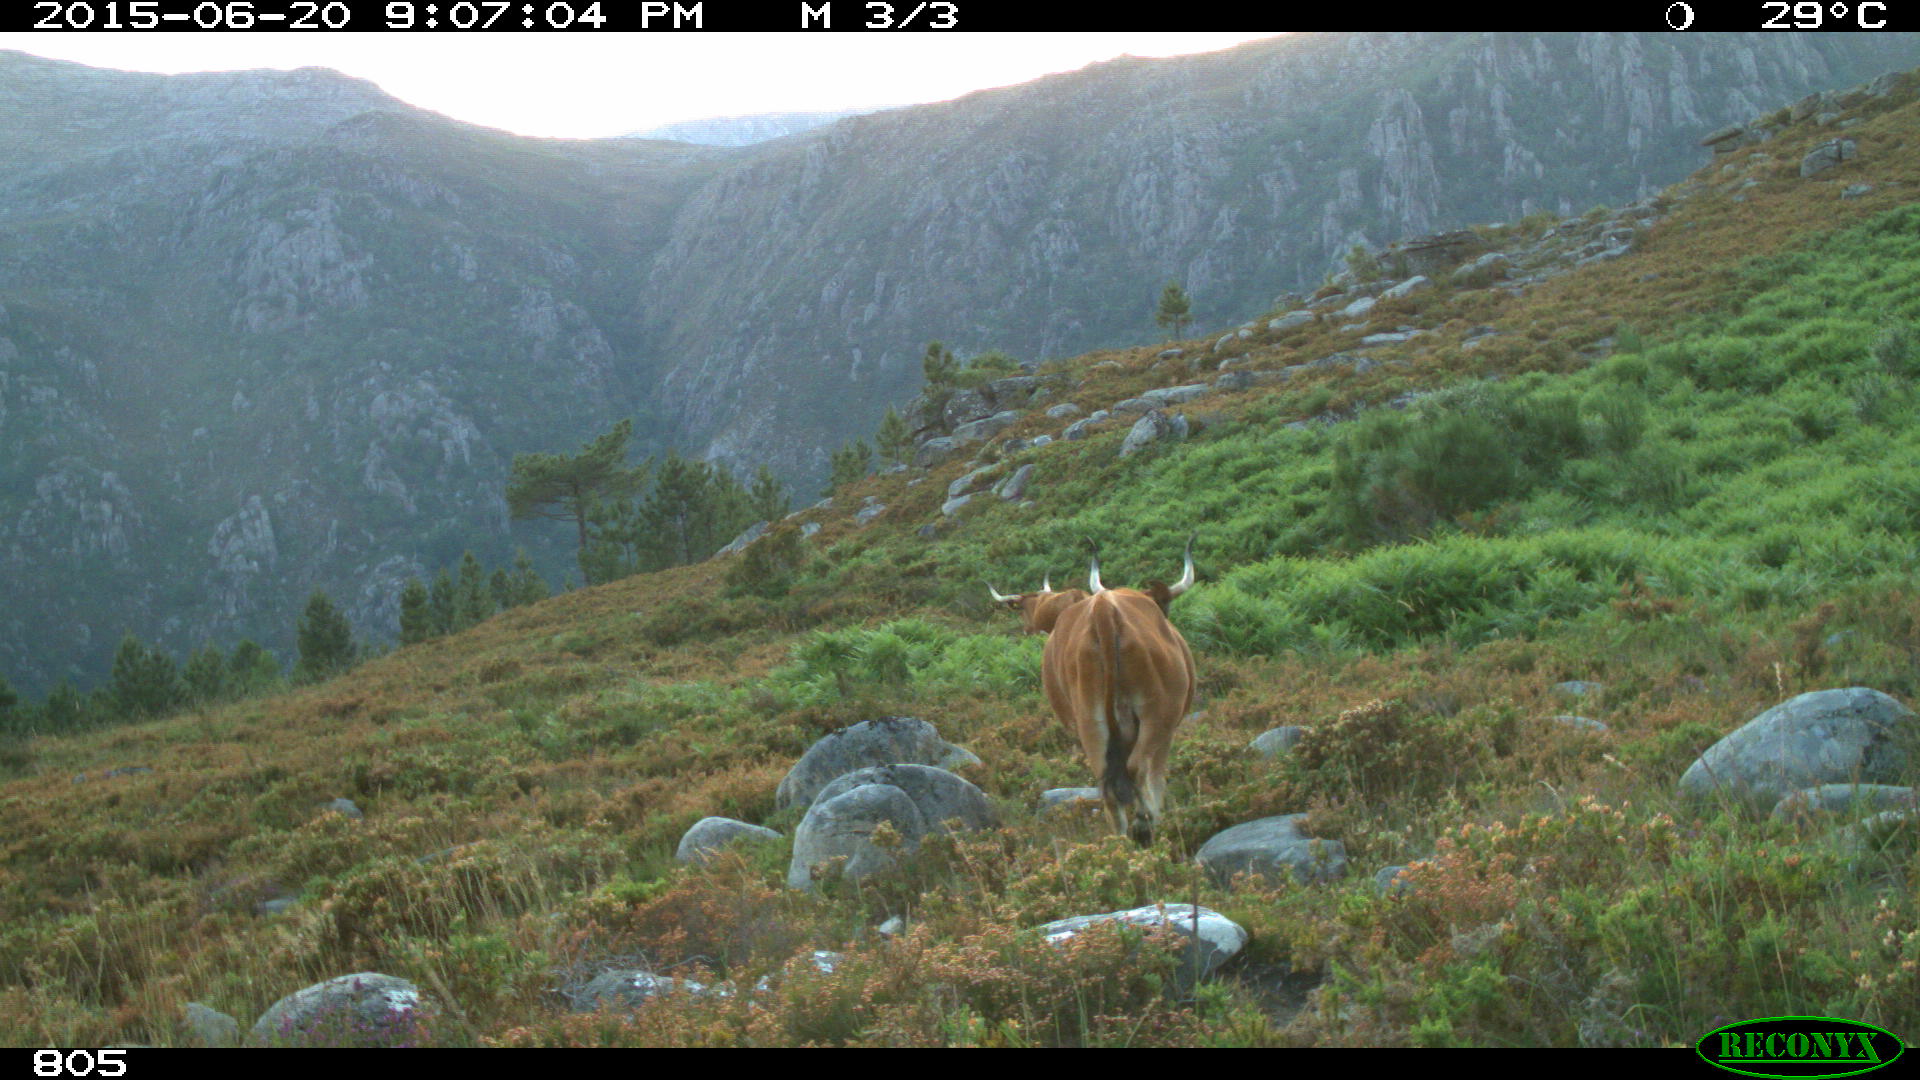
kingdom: Animalia
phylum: Chordata
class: Mammalia
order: Artiodactyla
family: Bovidae
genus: Bos
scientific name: Bos taurus
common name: Domesticated cattle
